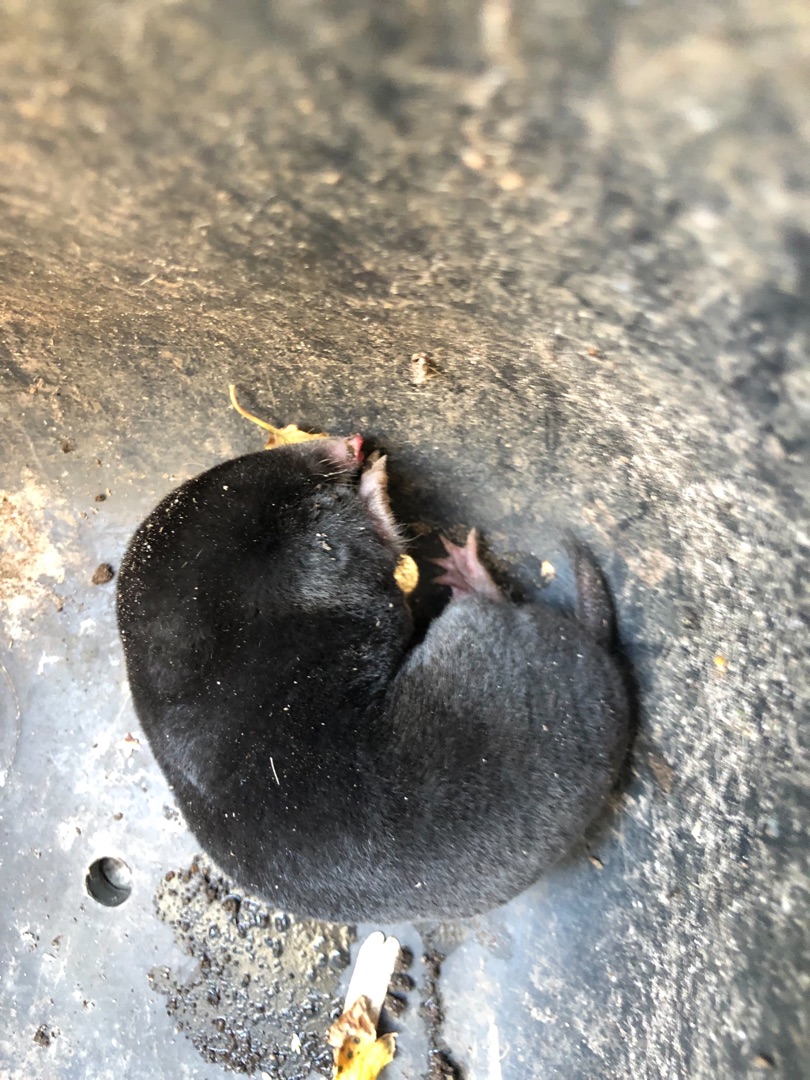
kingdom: Animalia
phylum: Chordata
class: Mammalia
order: Soricomorpha
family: Talpidae
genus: Talpa
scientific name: Talpa europaea
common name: Muldvarp
